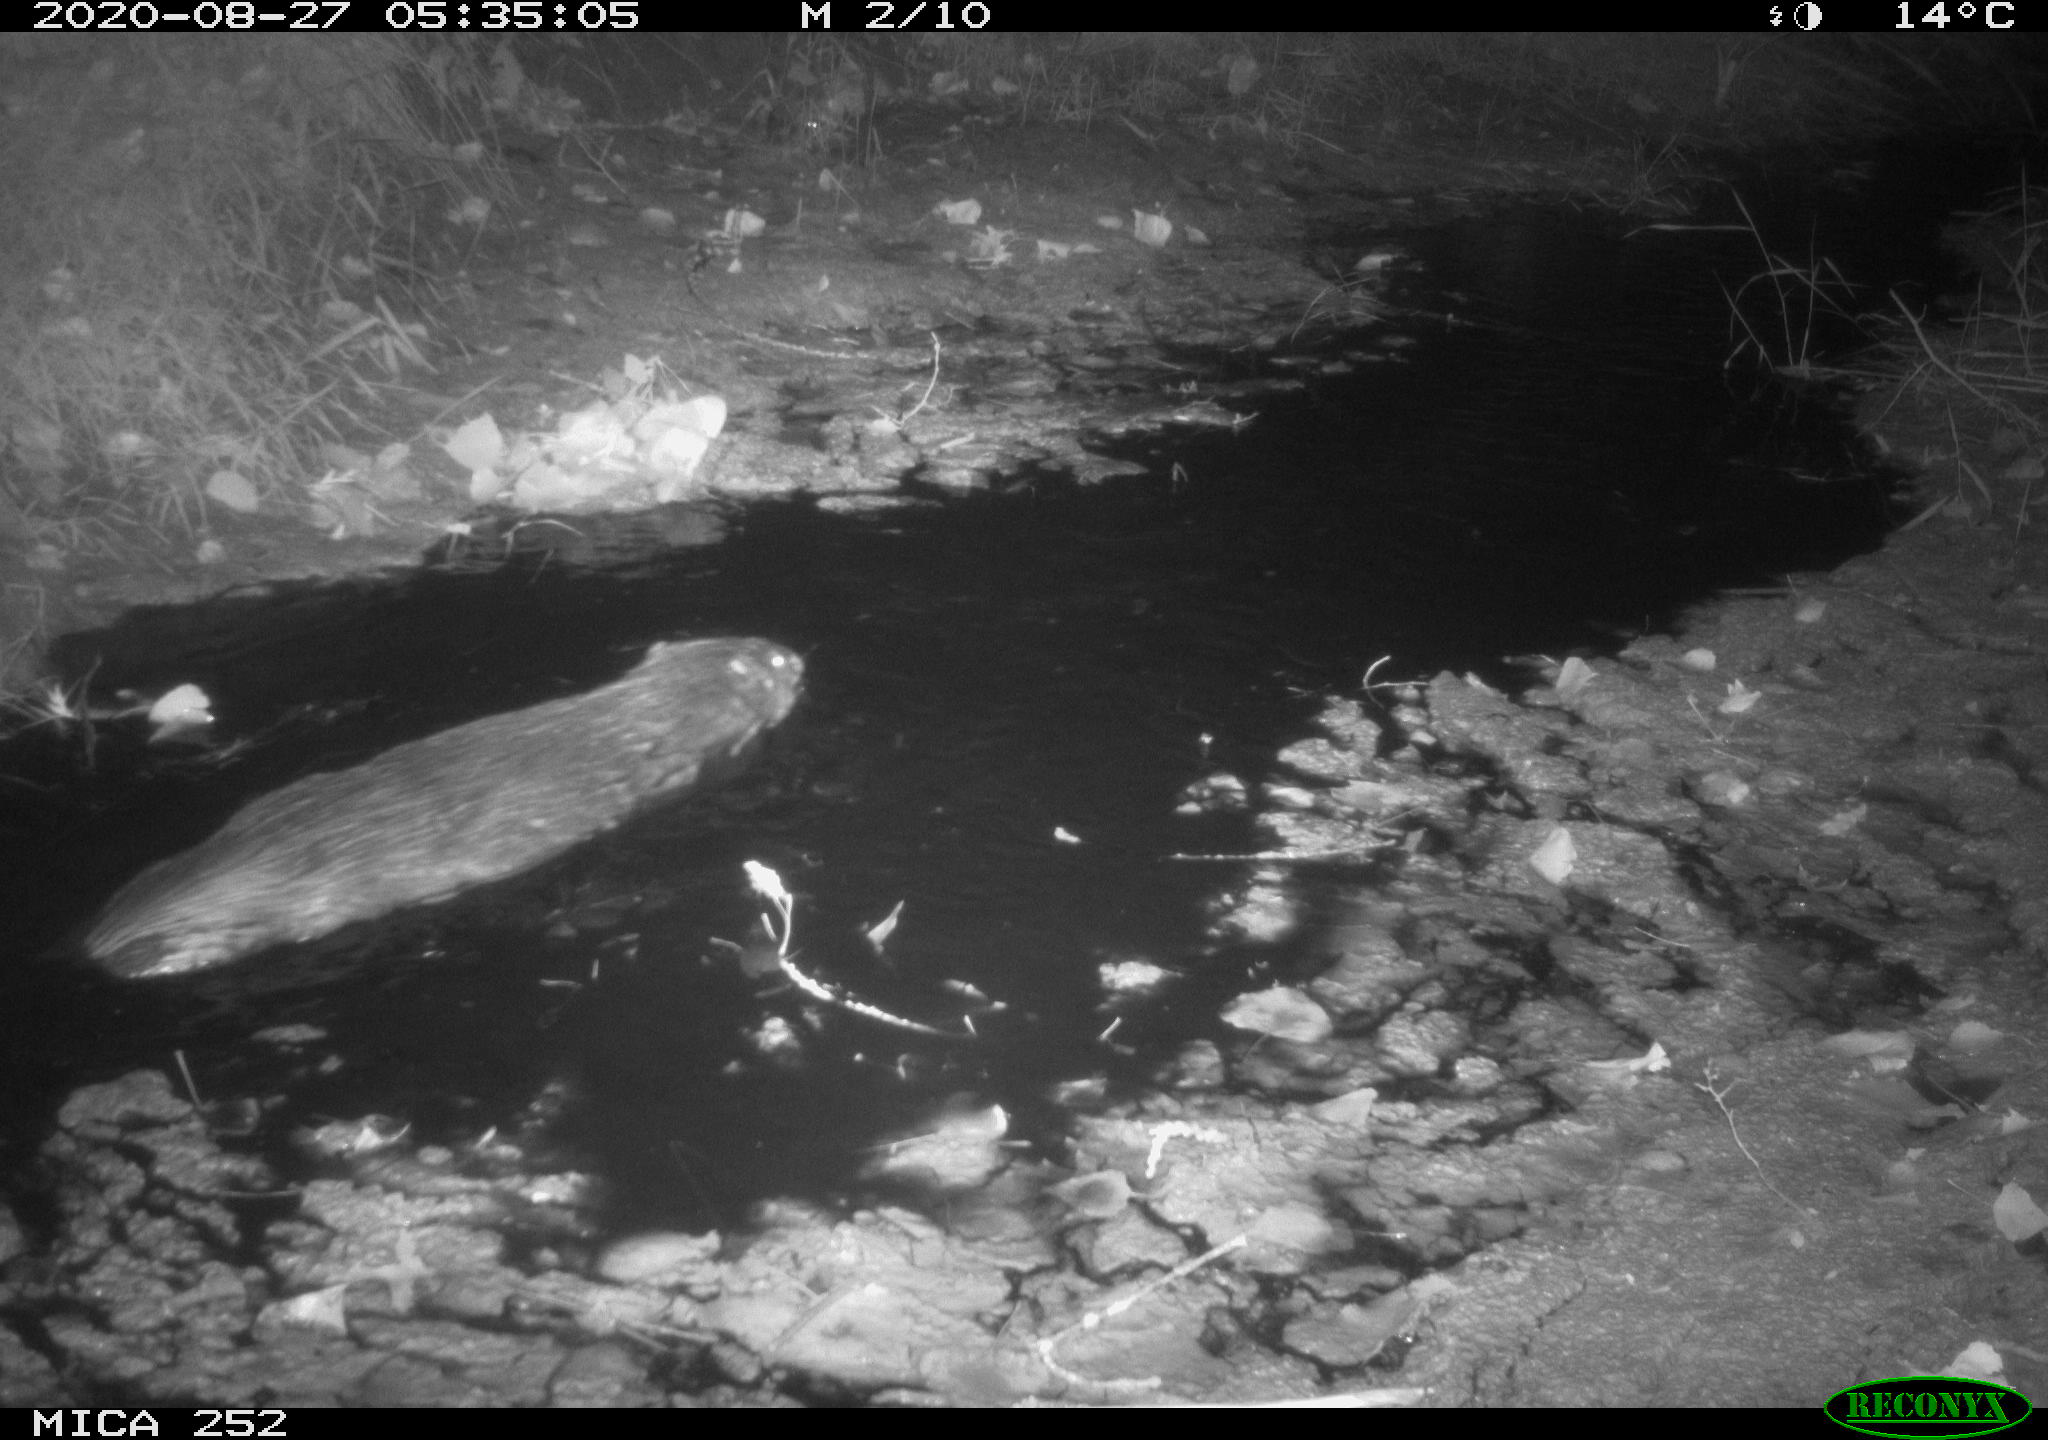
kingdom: Animalia
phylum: Chordata
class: Mammalia
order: Rodentia
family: Castoridae
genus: Castor
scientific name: Castor fiber
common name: Eurasian beaver
